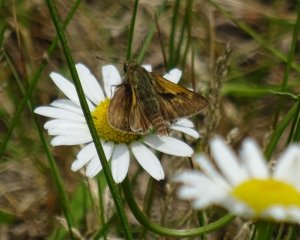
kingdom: Animalia
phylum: Arthropoda
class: Insecta
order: Lepidoptera
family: Hesperiidae
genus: Polites
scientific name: Polites
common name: Long Dash Skipper
